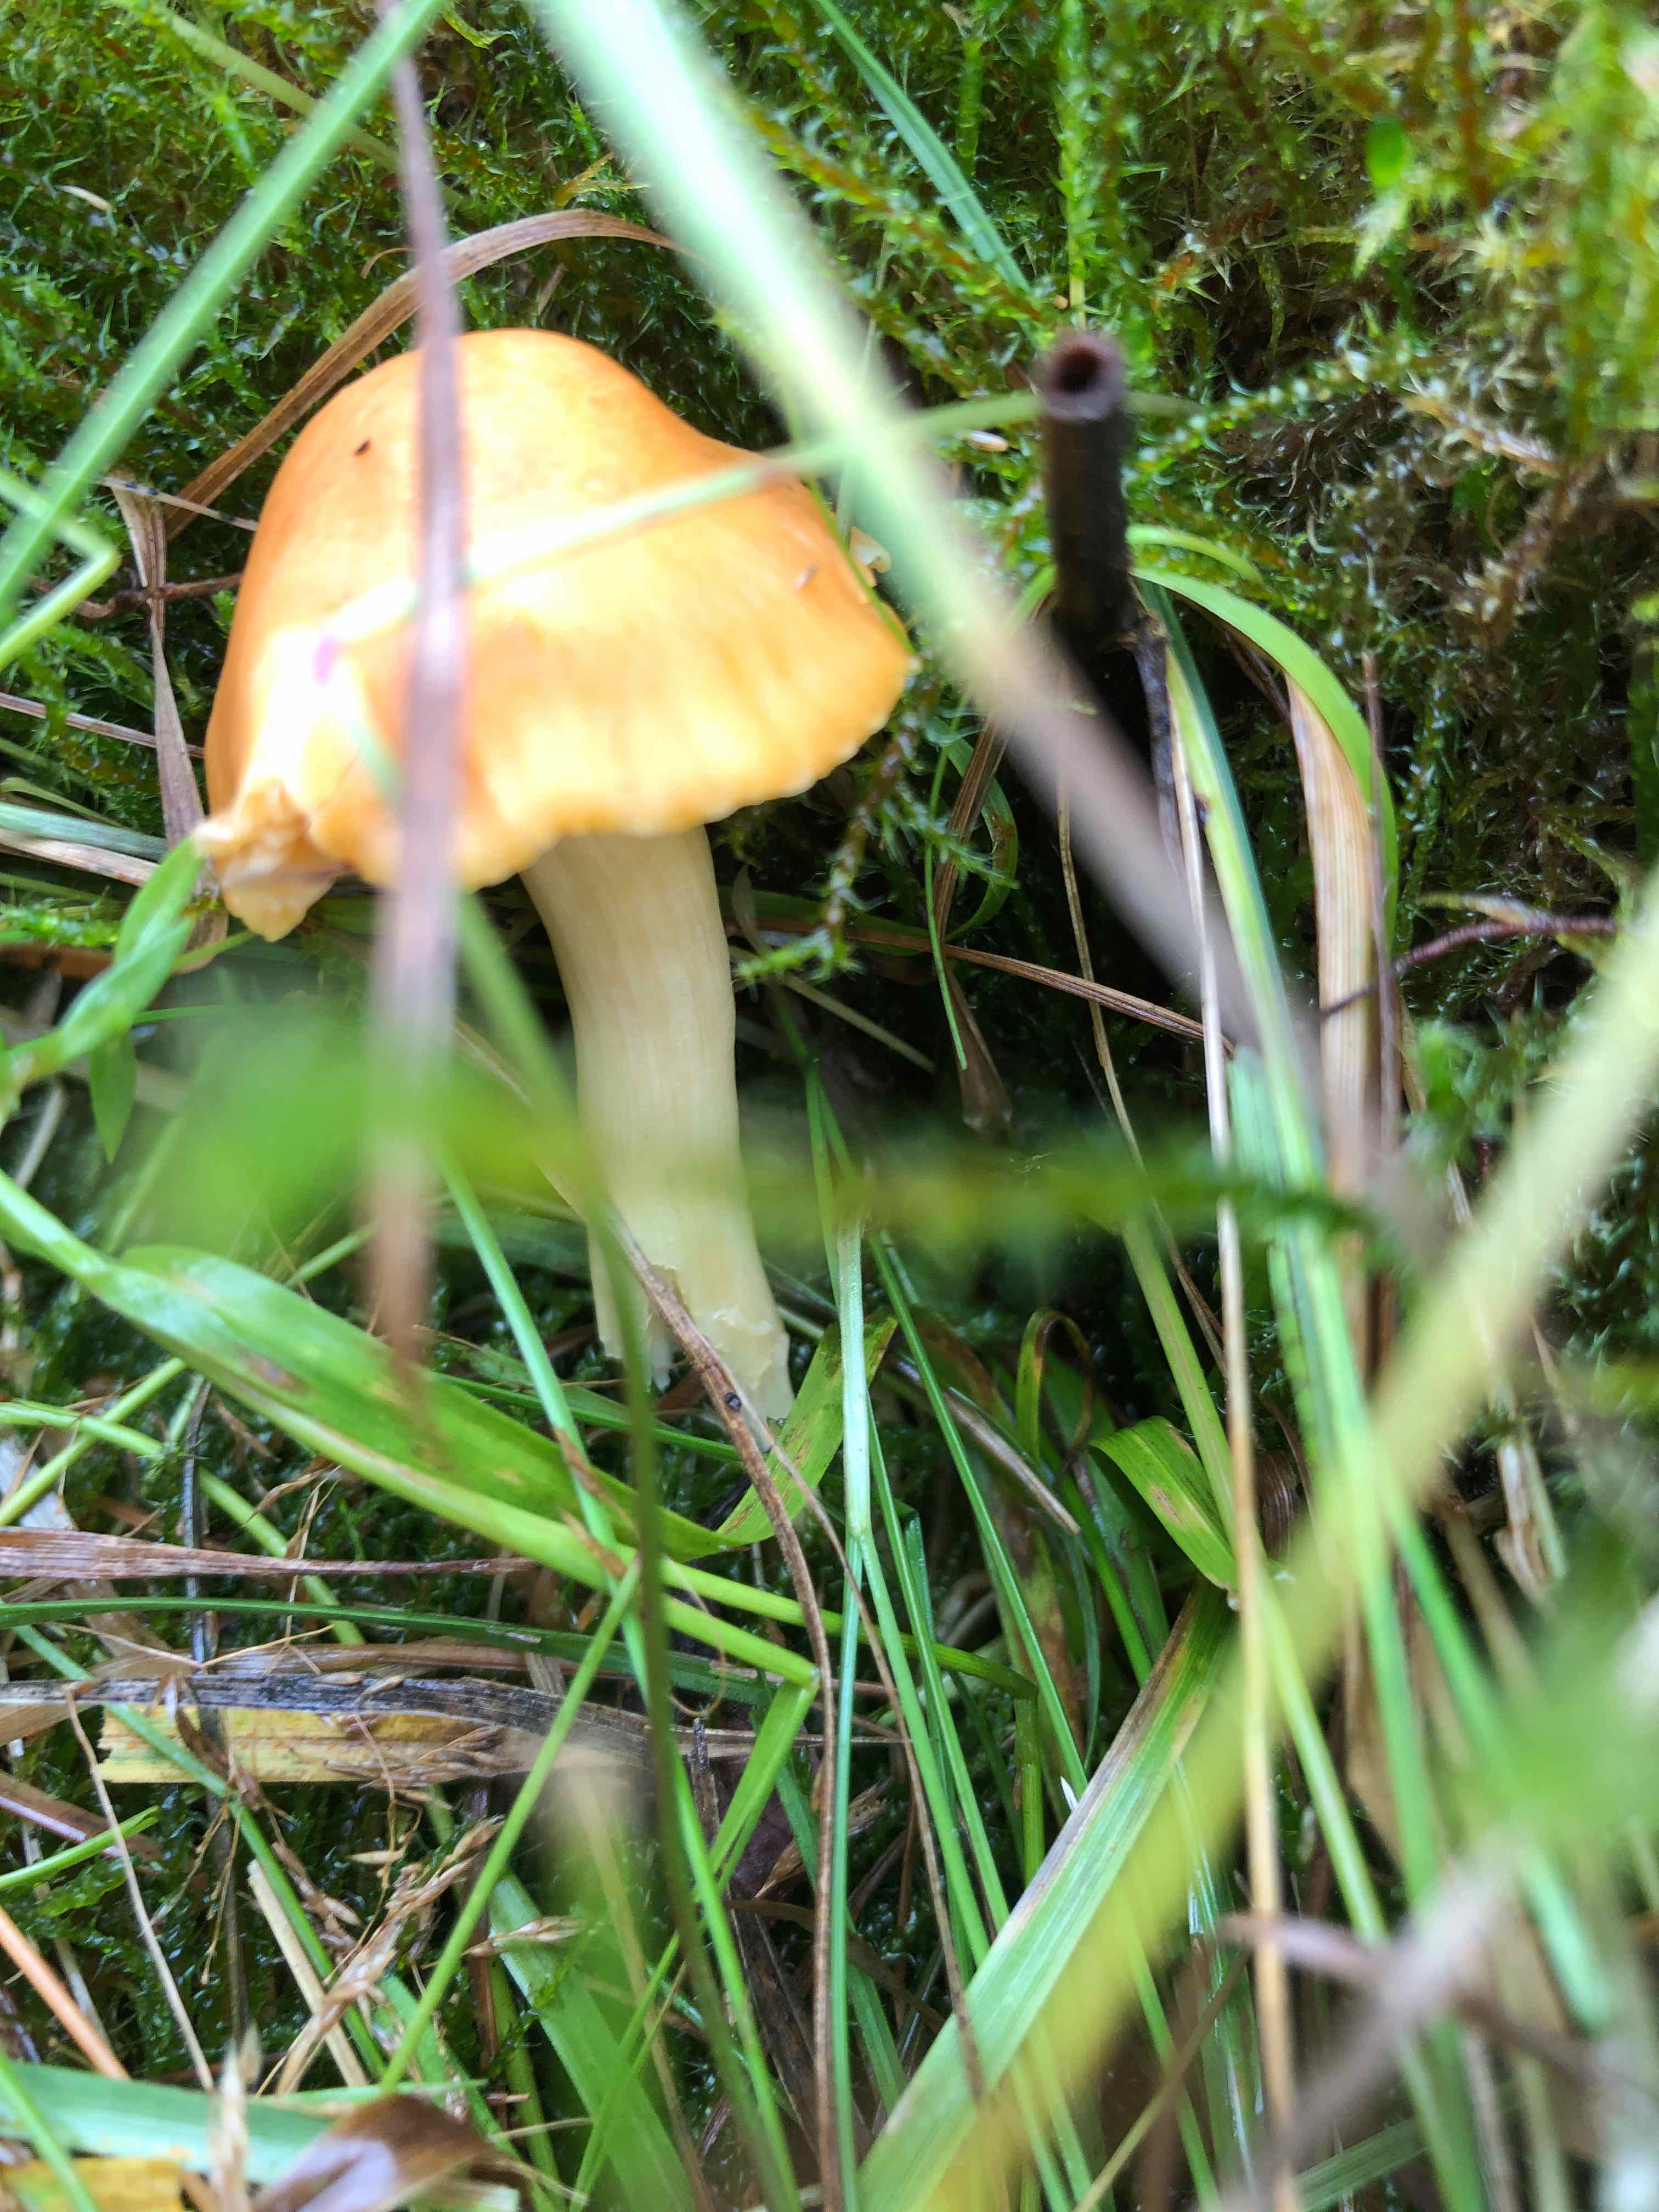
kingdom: Fungi
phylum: Basidiomycota
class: Agaricomycetes
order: Agaricales
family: Hygrophoraceae
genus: Cuphophyllus
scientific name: Cuphophyllus pratensis
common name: eng-vokshat
